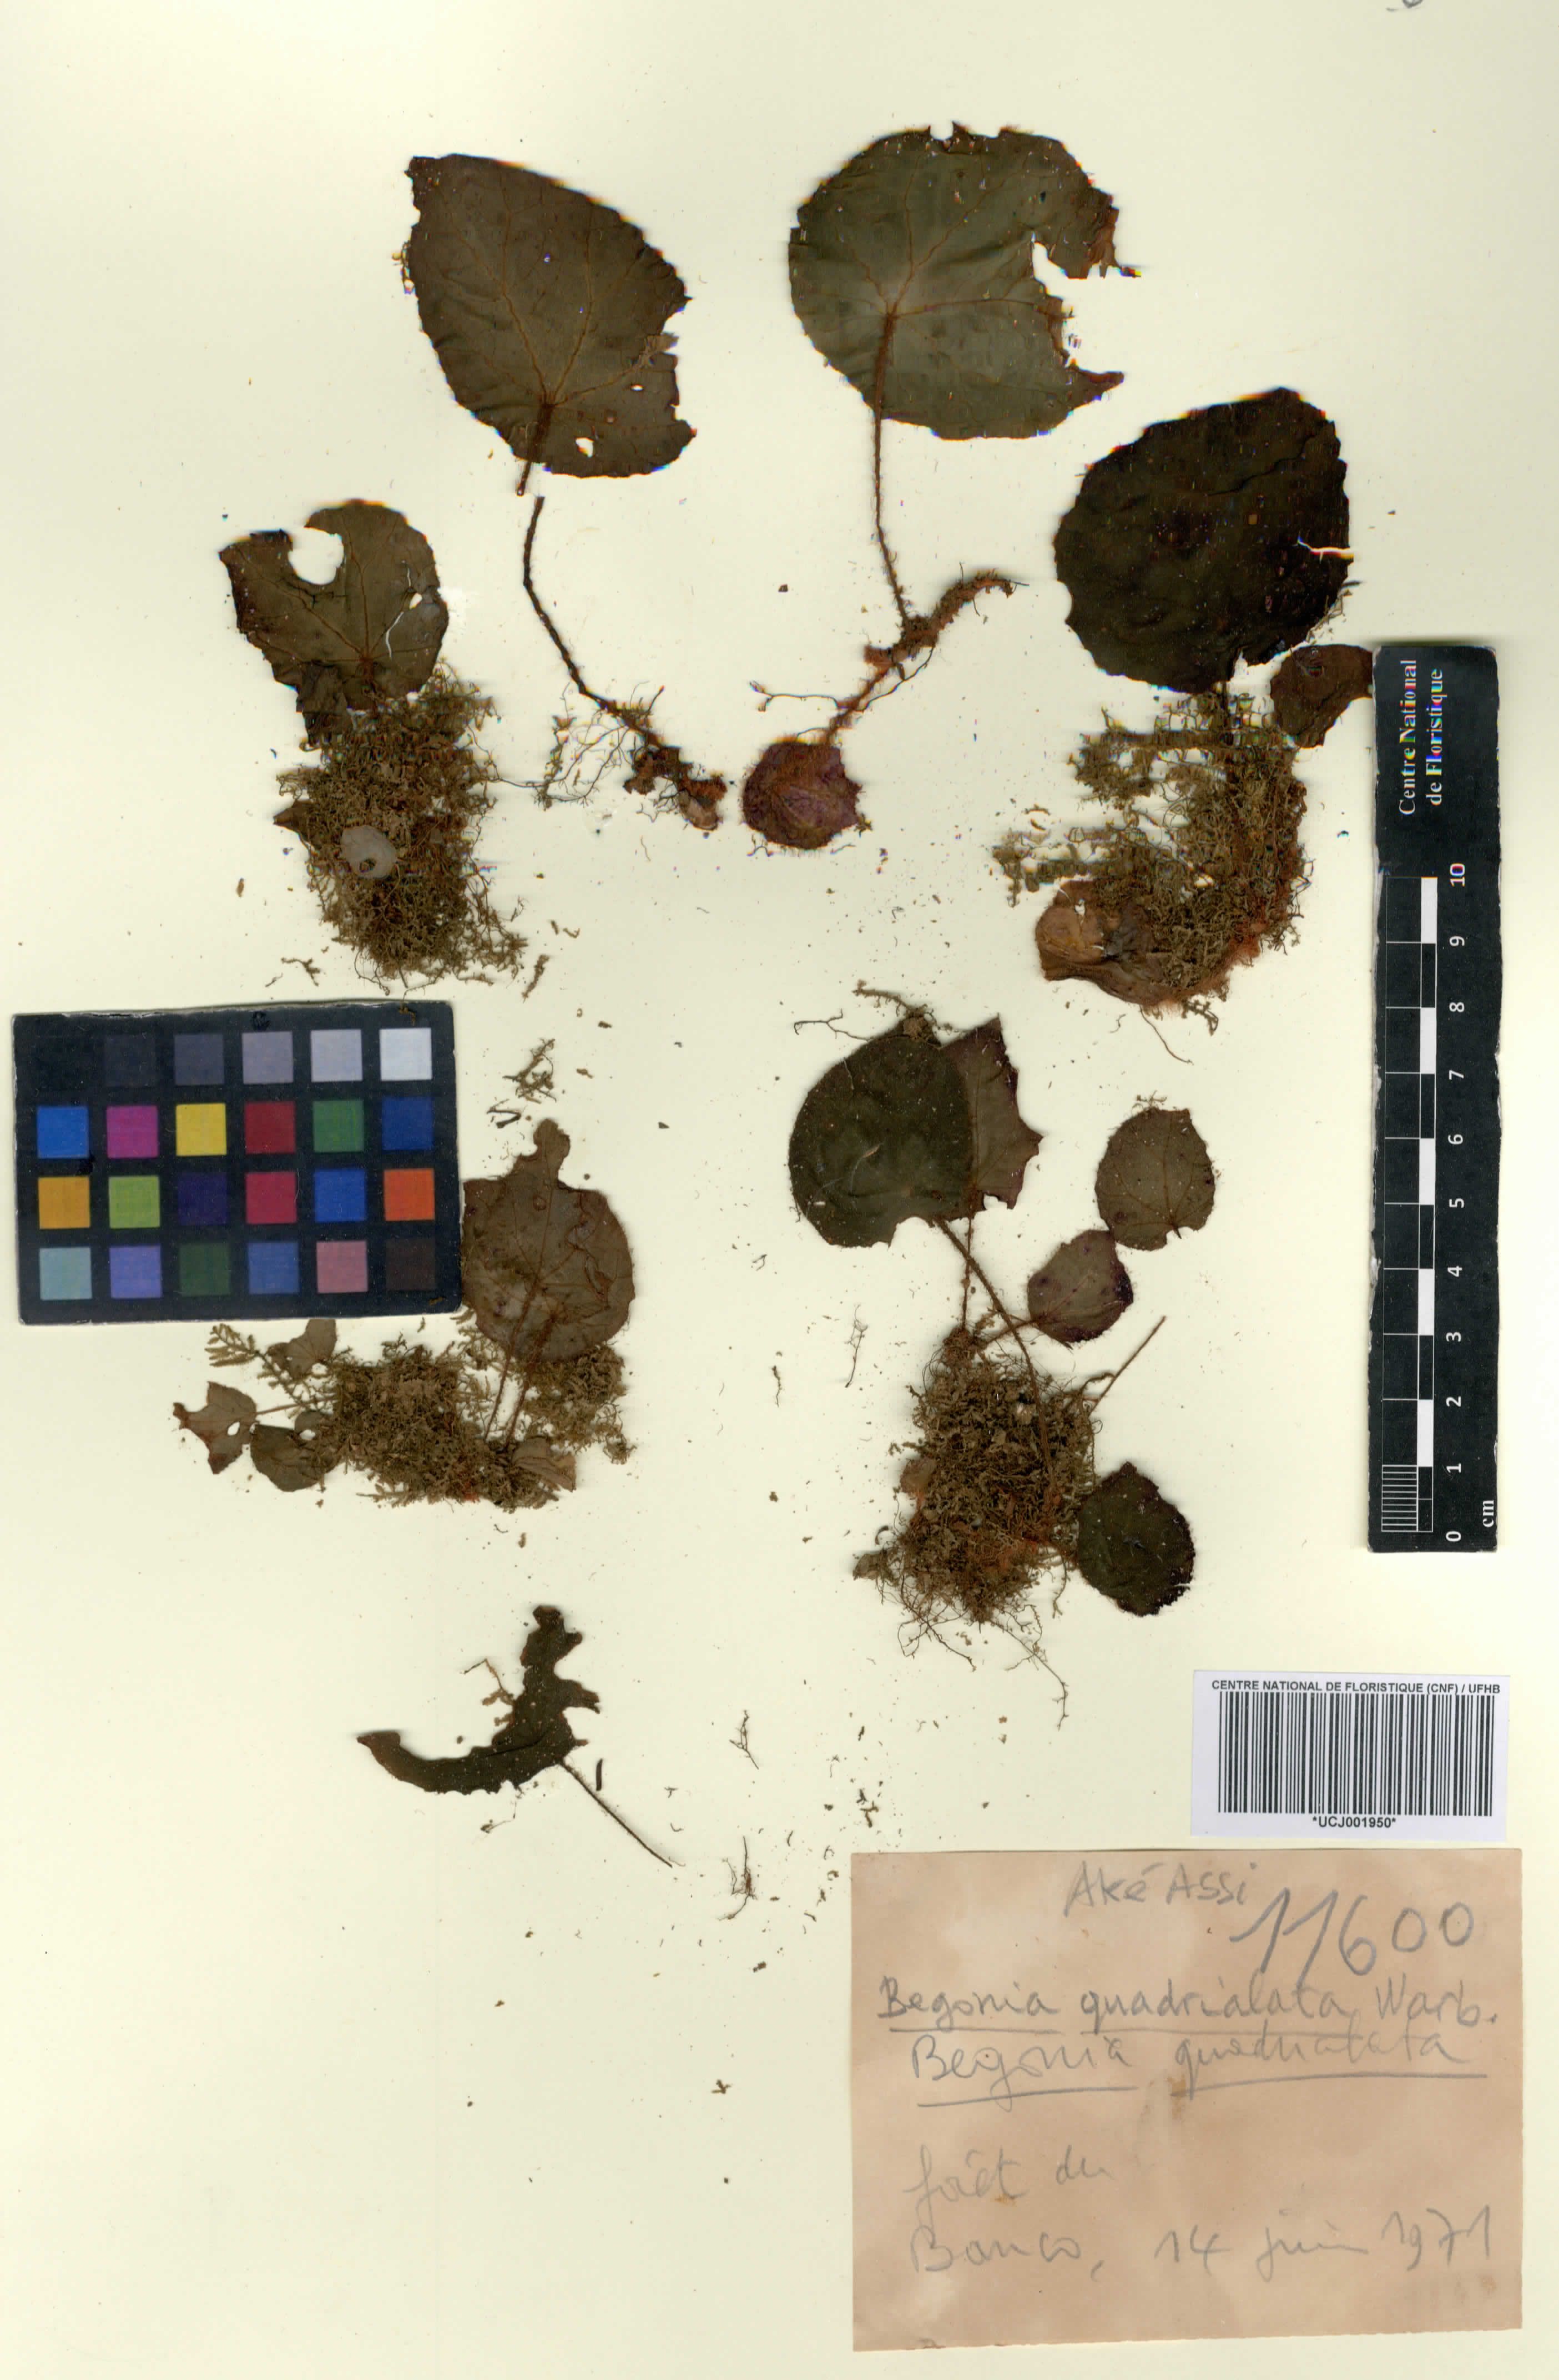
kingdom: Plantae
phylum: Tracheophyta
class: Magnoliopsida
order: Cucurbitales
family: Begoniaceae
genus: Begonia
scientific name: Begonia quadrialata
